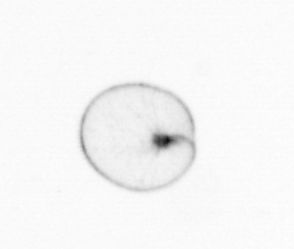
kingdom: Chromista
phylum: Myzozoa
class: Dinophyceae
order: Noctilucales
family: Noctilucaceae
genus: Noctiluca
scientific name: Noctiluca scintillans
